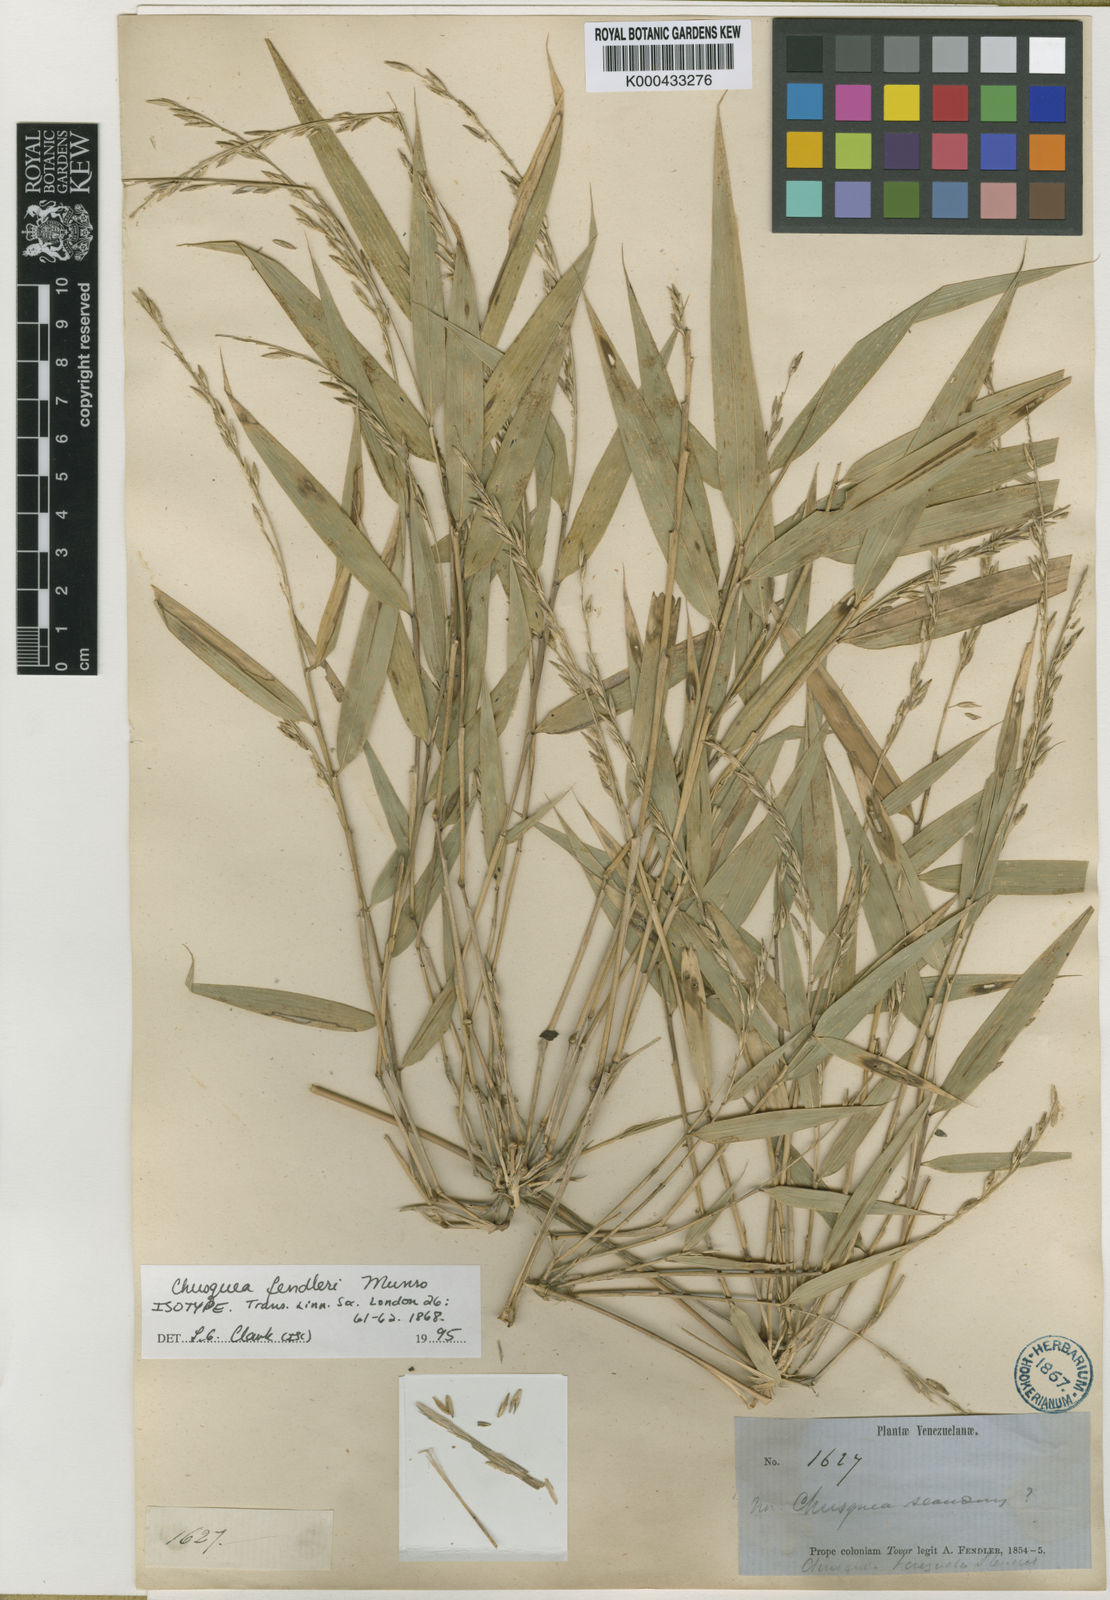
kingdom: Plantae
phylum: Tracheophyta
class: Liliopsida
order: Poales
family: Poaceae
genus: Chusquea
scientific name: Chusquea fendleri
